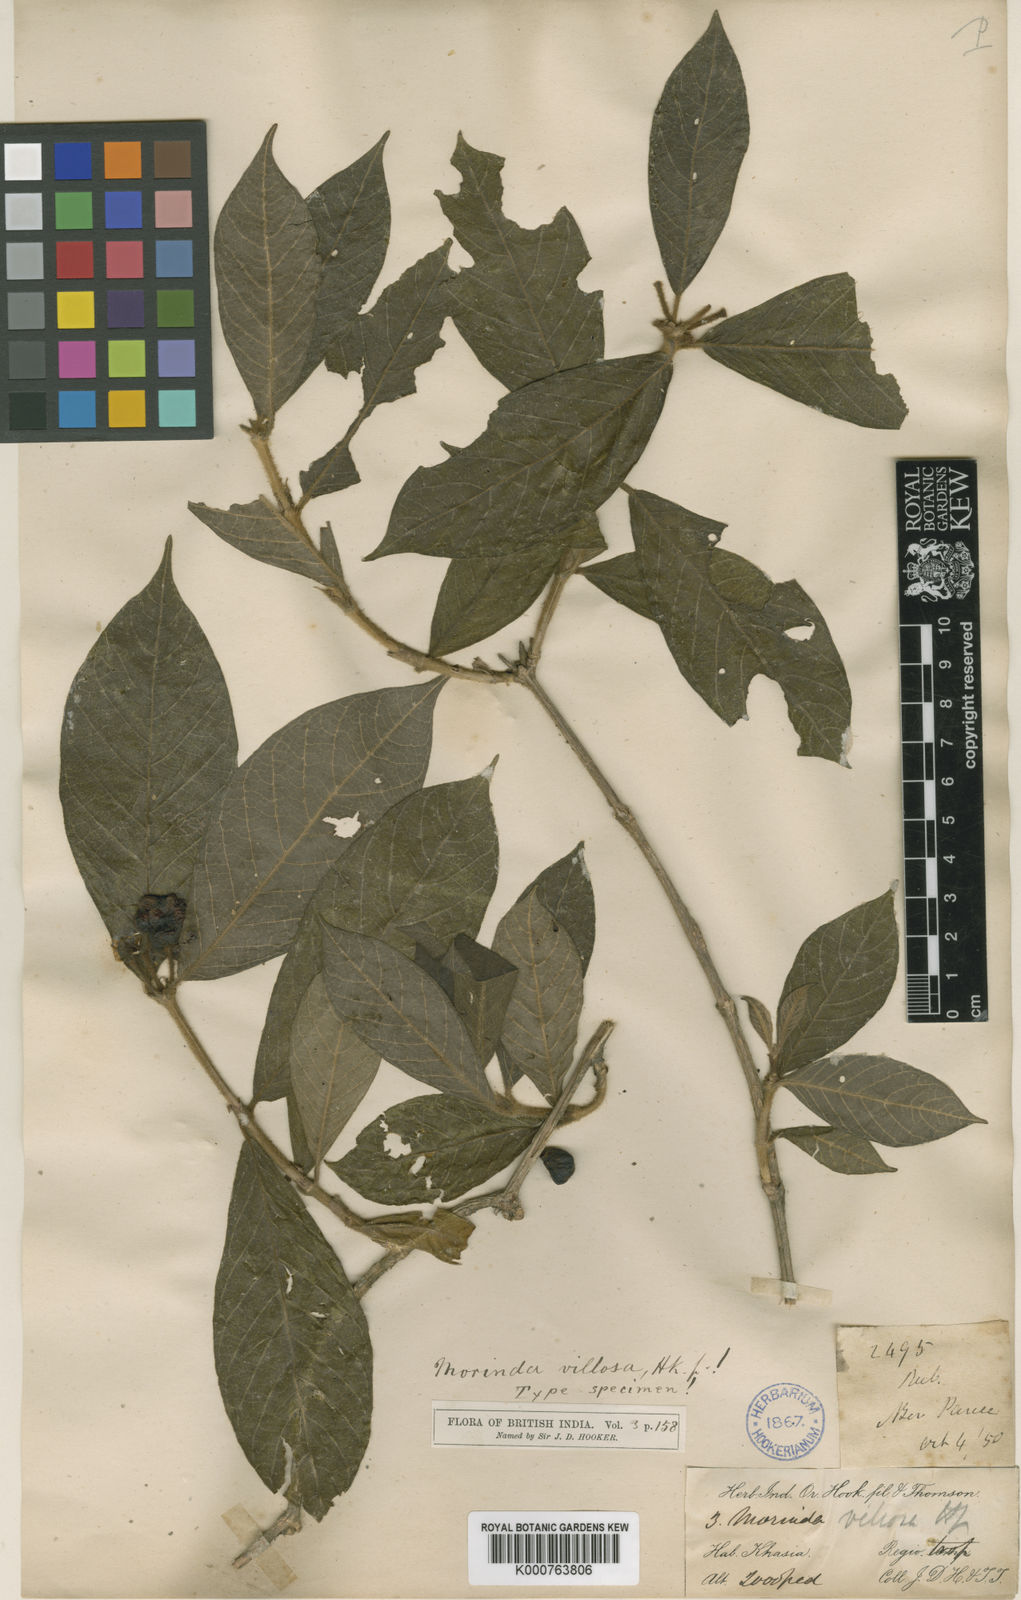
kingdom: Plantae
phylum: Tracheophyta
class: Magnoliopsida
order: Gentianales
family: Rubiaceae
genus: Gynochthodes
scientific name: Gynochthodes villosa
